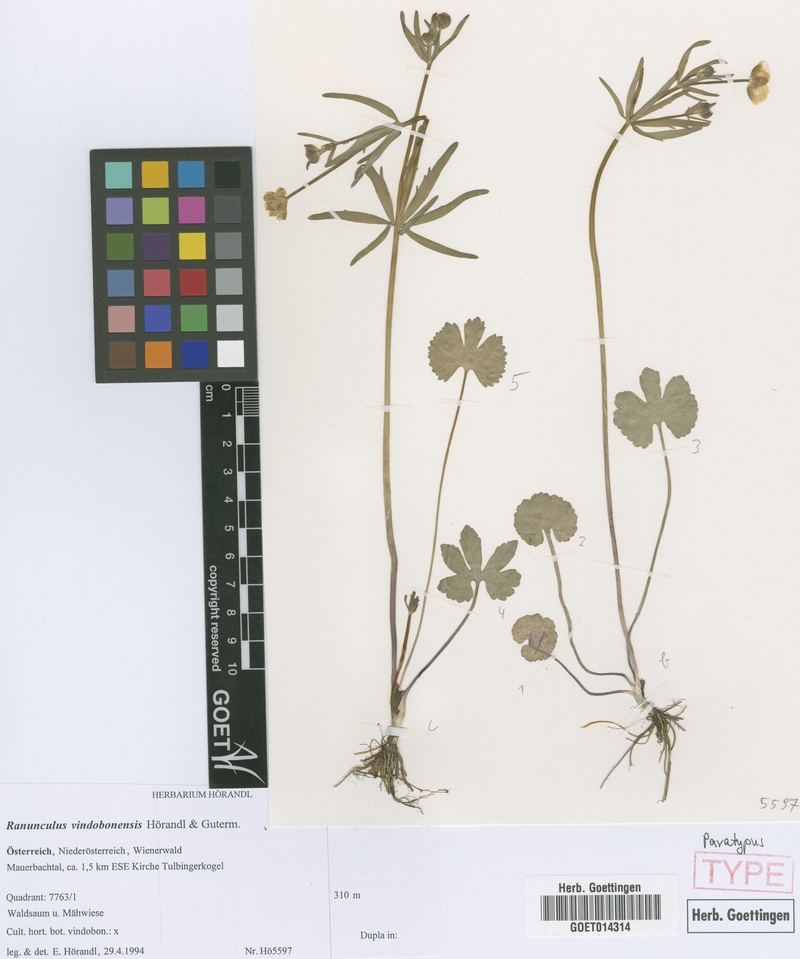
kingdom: Plantae
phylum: Tracheophyta
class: Magnoliopsida
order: Ranunculales
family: Ranunculaceae
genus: Ranunculus
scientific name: Ranunculus vindobonensis
